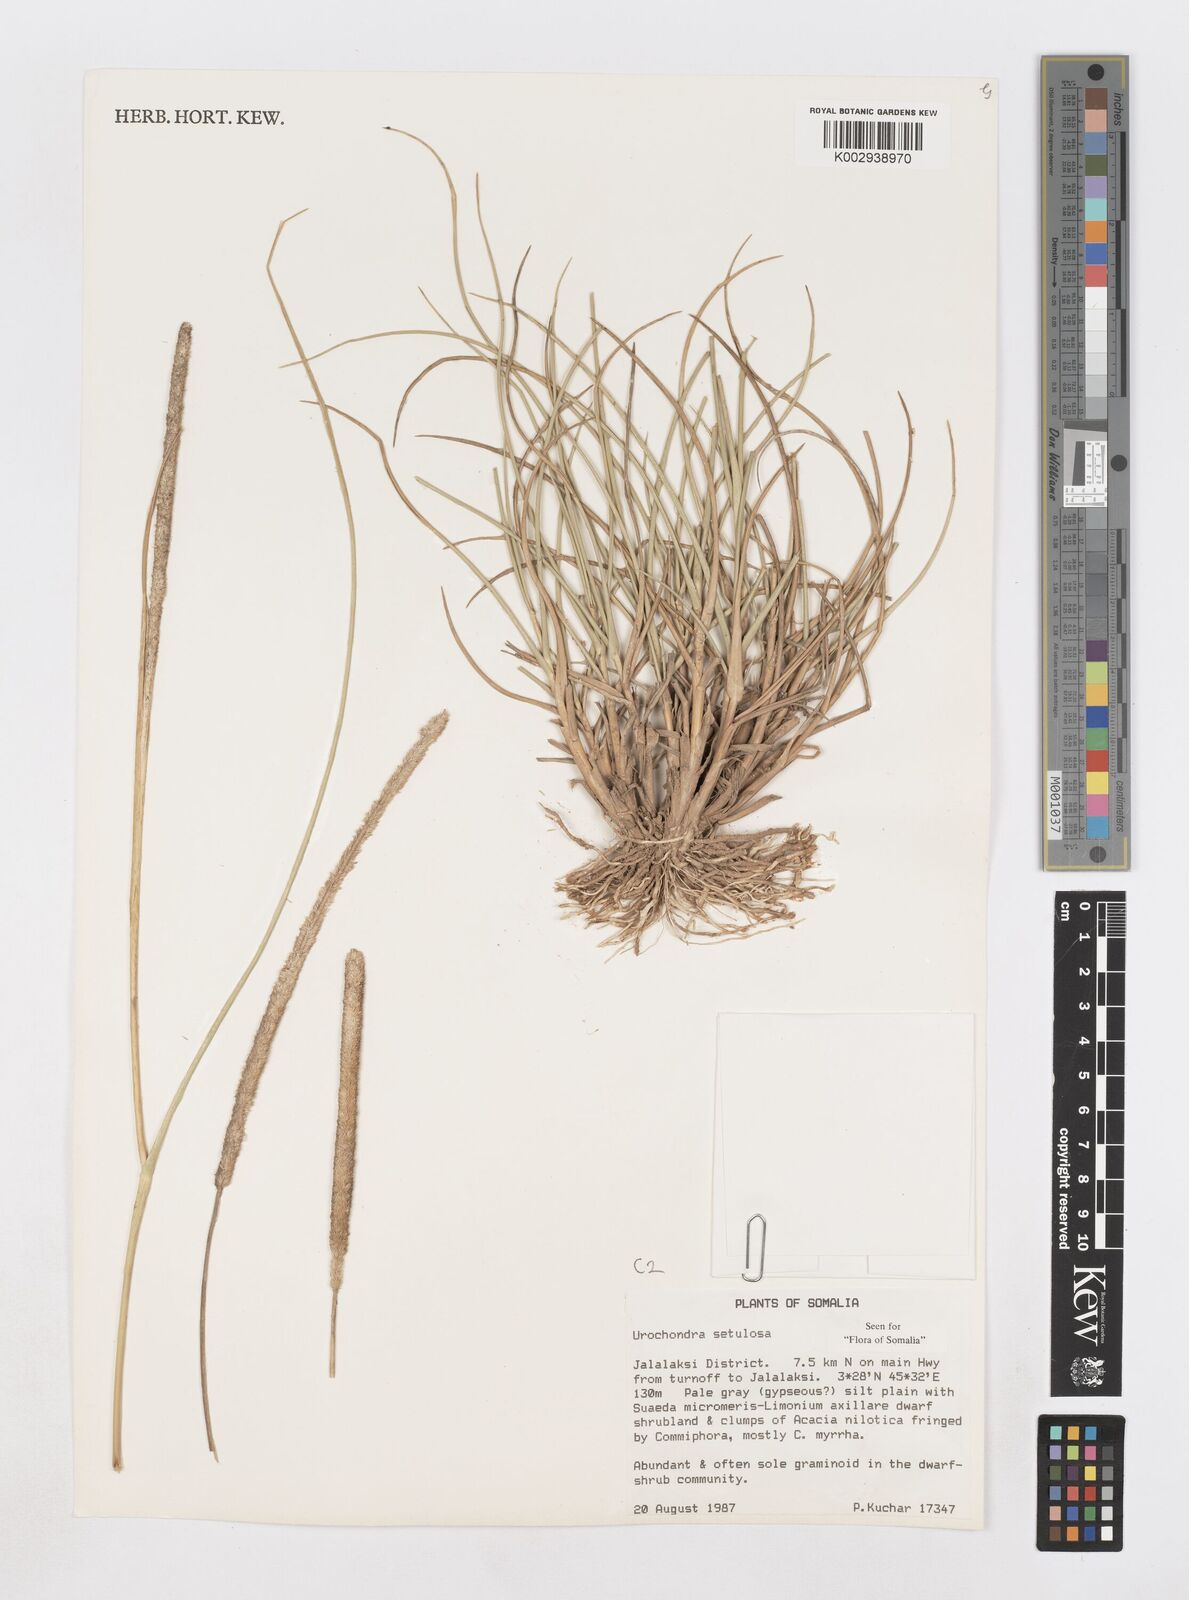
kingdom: Plantae
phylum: Tracheophyta
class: Liliopsida
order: Poales
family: Poaceae
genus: Urochondra
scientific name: Urochondra setulosa
